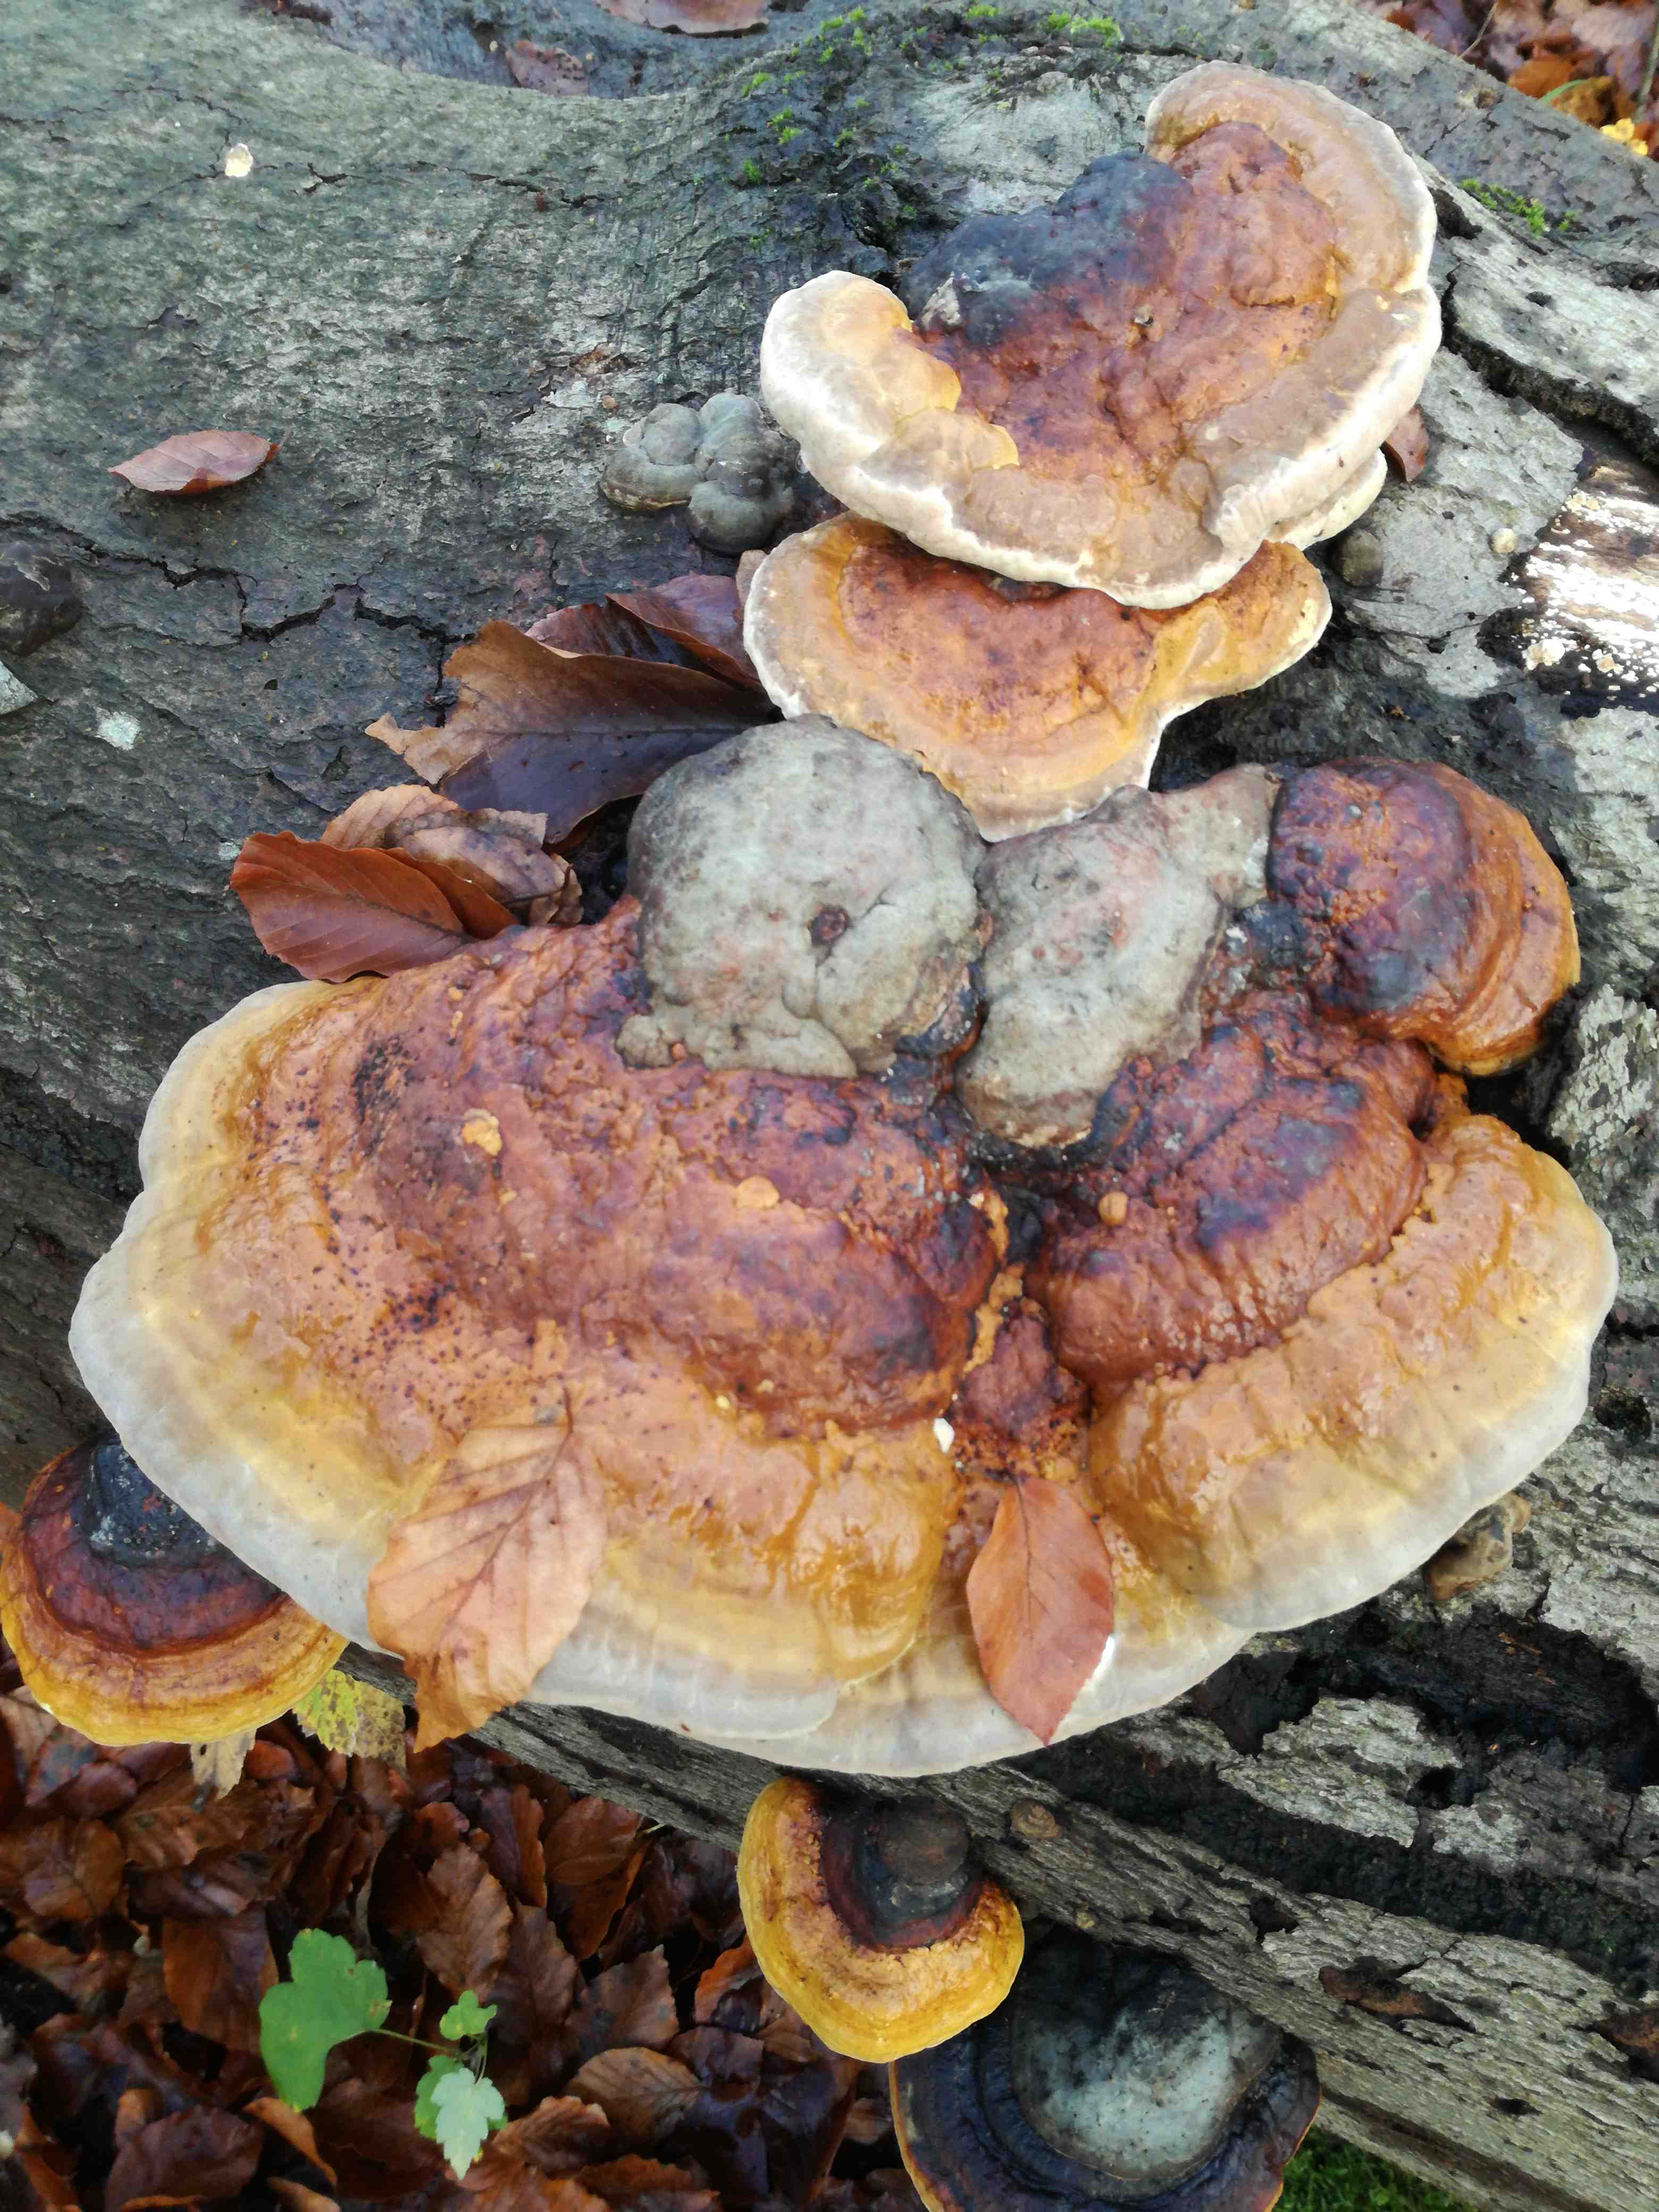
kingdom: Fungi
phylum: Basidiomycota
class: Agaricomycetes
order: Polyporales
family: Fomitopsidaceae
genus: Fomitopsis
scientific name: Fomitopsis pinicola
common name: randbæltet hovporesvamp
